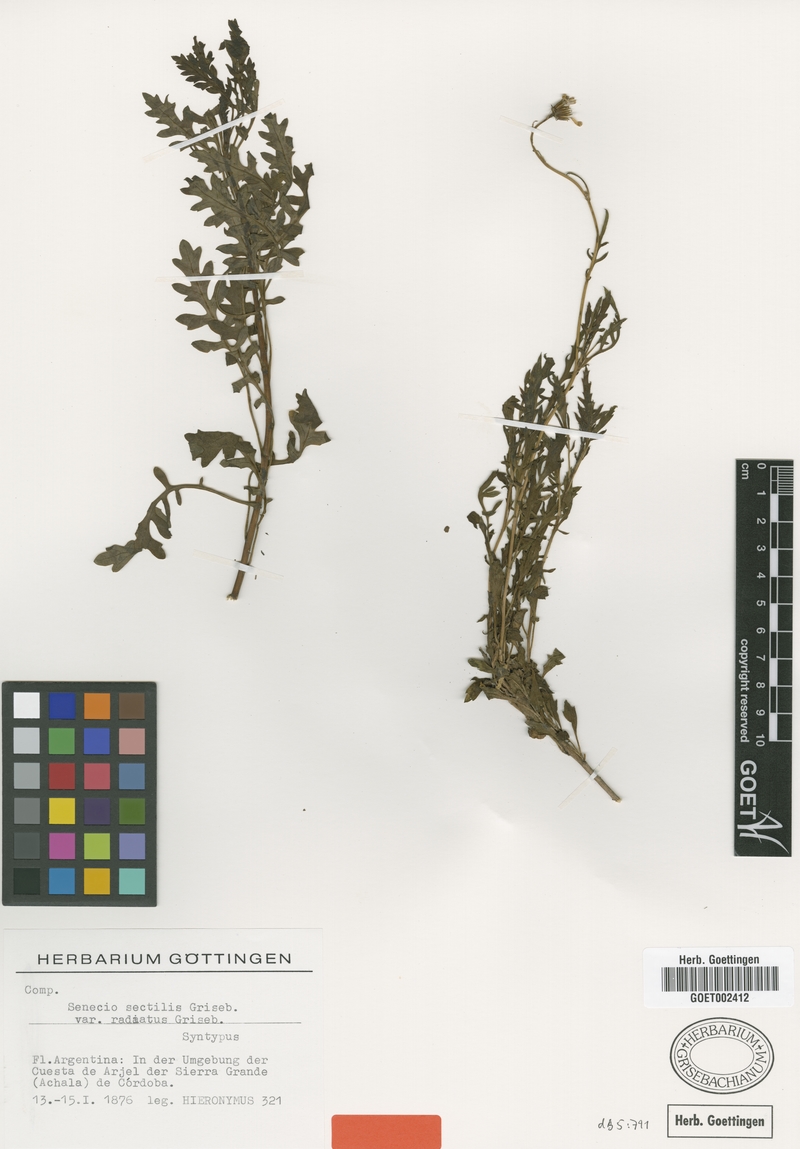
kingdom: Plantae
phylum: Tracheophyta
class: Magnoliopsida
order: Asterales
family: Asteraceae
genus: Senecio
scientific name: Senecio sectilis
